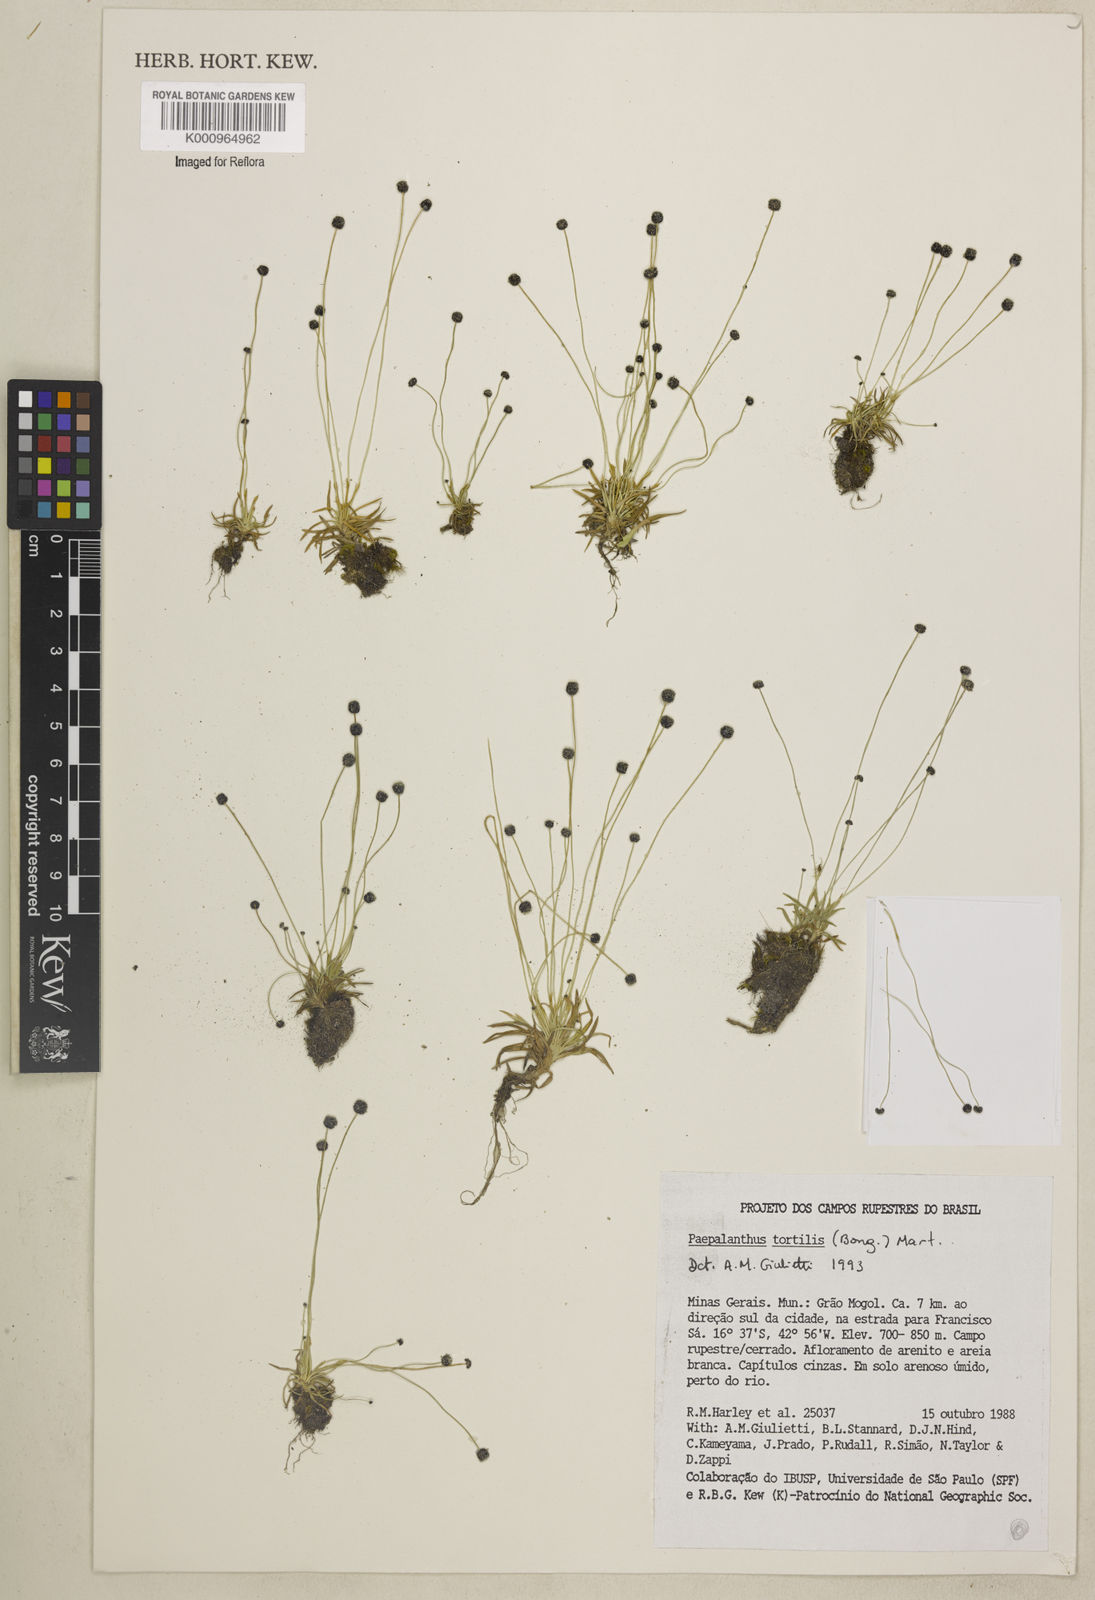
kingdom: Plantae
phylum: Tracheophyta
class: Liliopsida
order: Poales
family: Eriocaulaceae
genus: Paepalanthus
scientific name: Paepalanthus
